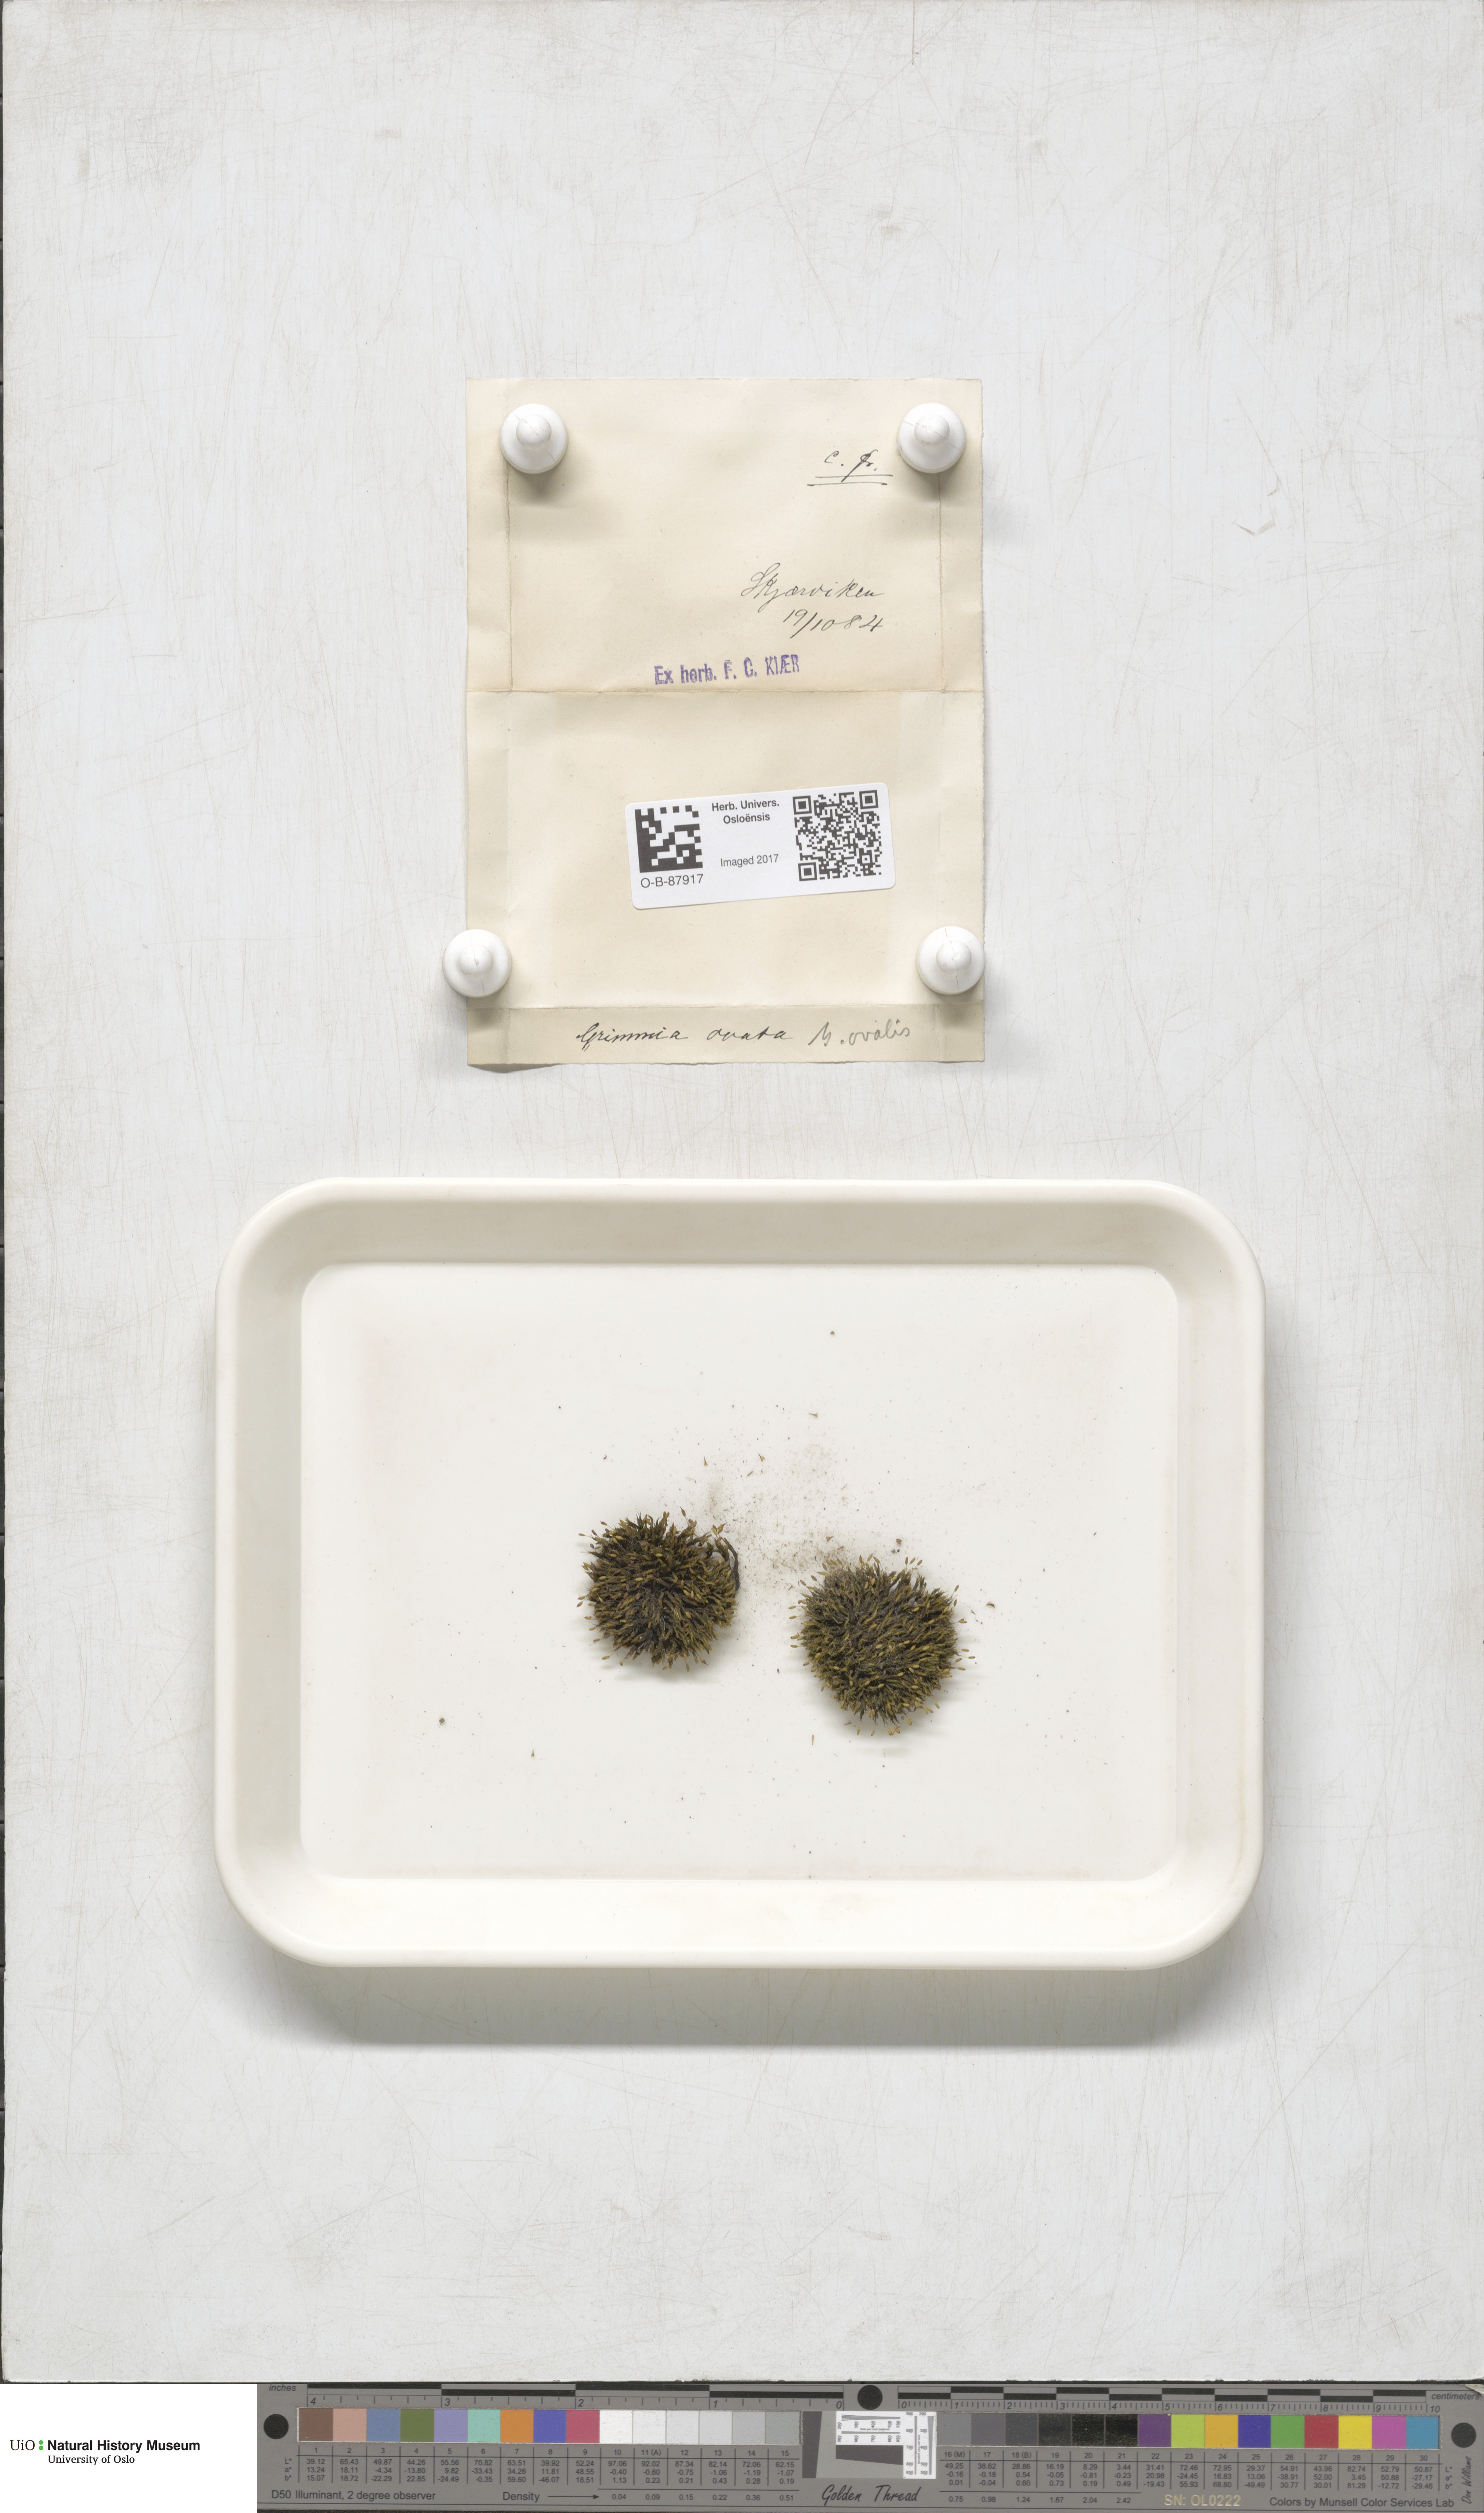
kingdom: Plantae
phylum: Bryophyta
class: Bryopsida
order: Grimmiales
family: Grimmiaceae
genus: Grimmia
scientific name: Grimmia ovalis
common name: Oval grimmia
